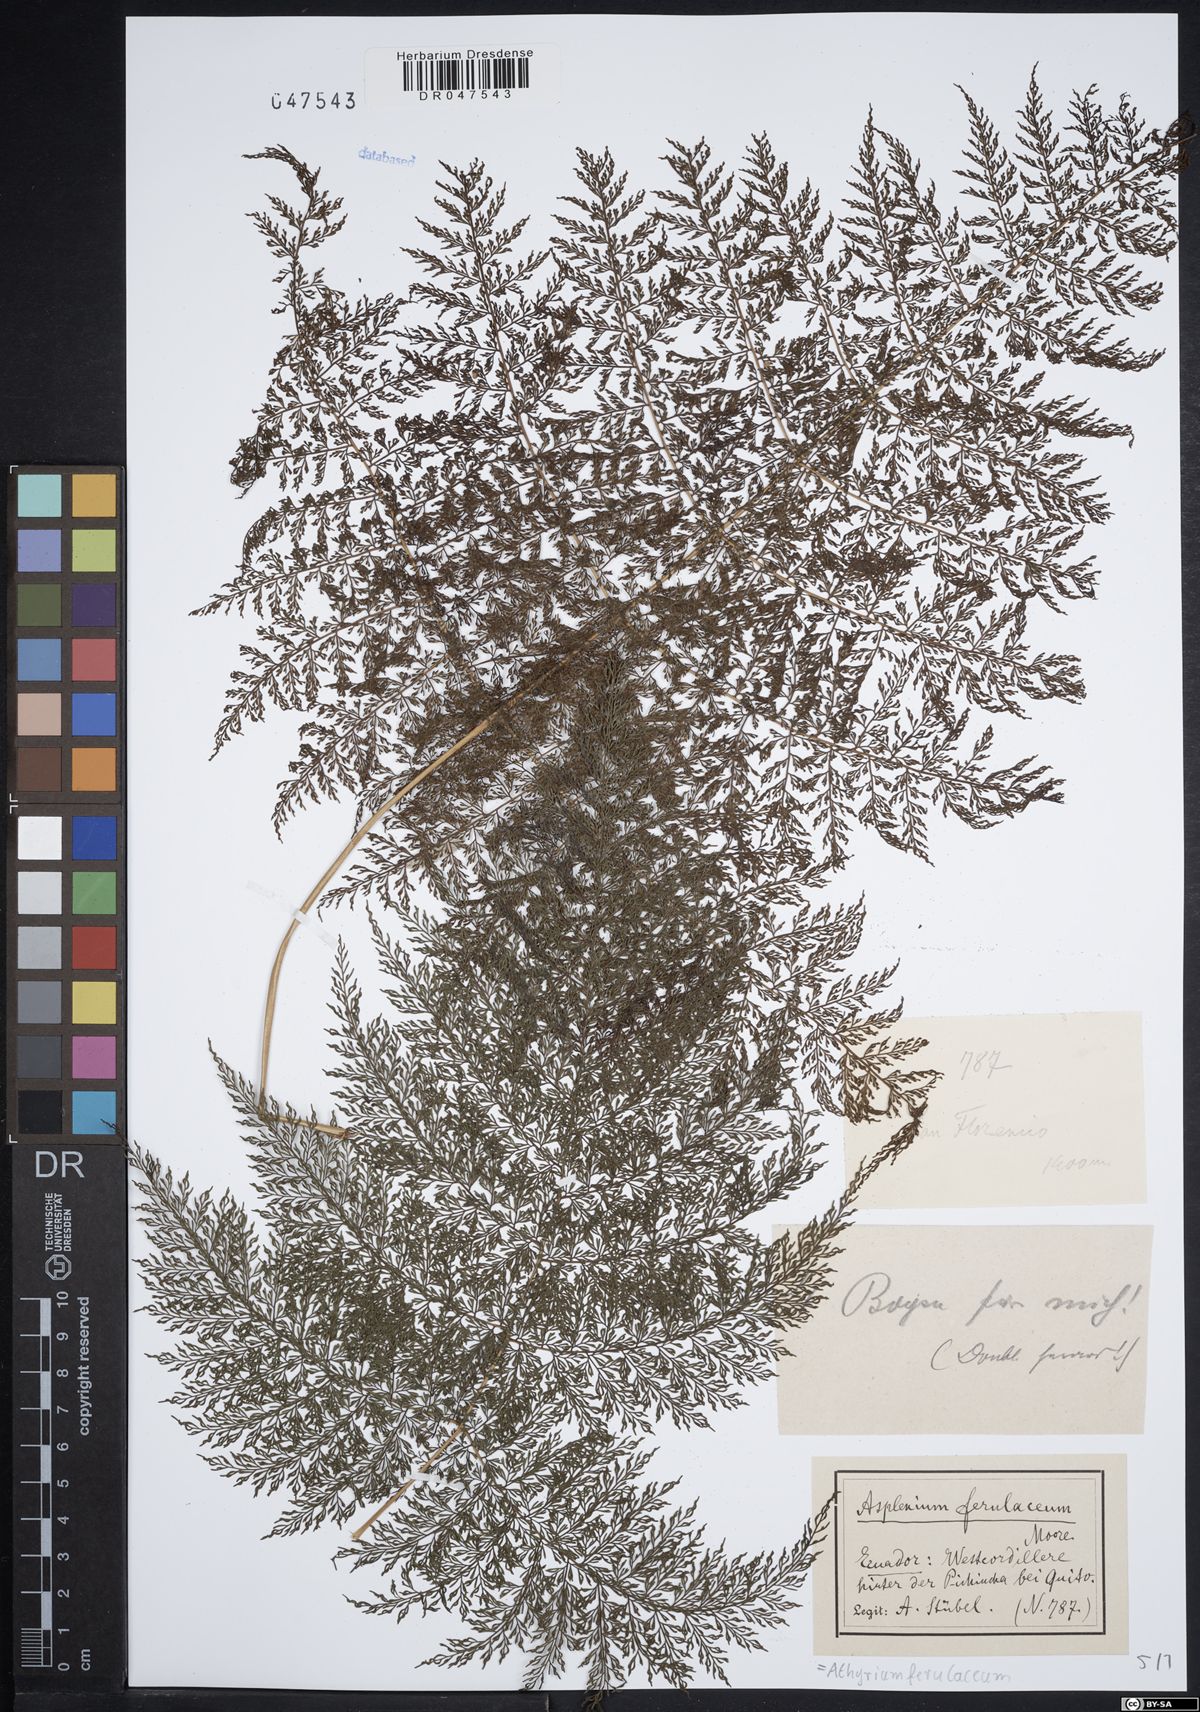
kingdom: Plantae
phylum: Tracheophyta
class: Polypodiopsida
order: Polypodiales
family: Athyriaceae
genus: Athyrium
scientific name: Athyrium ferulaceum
